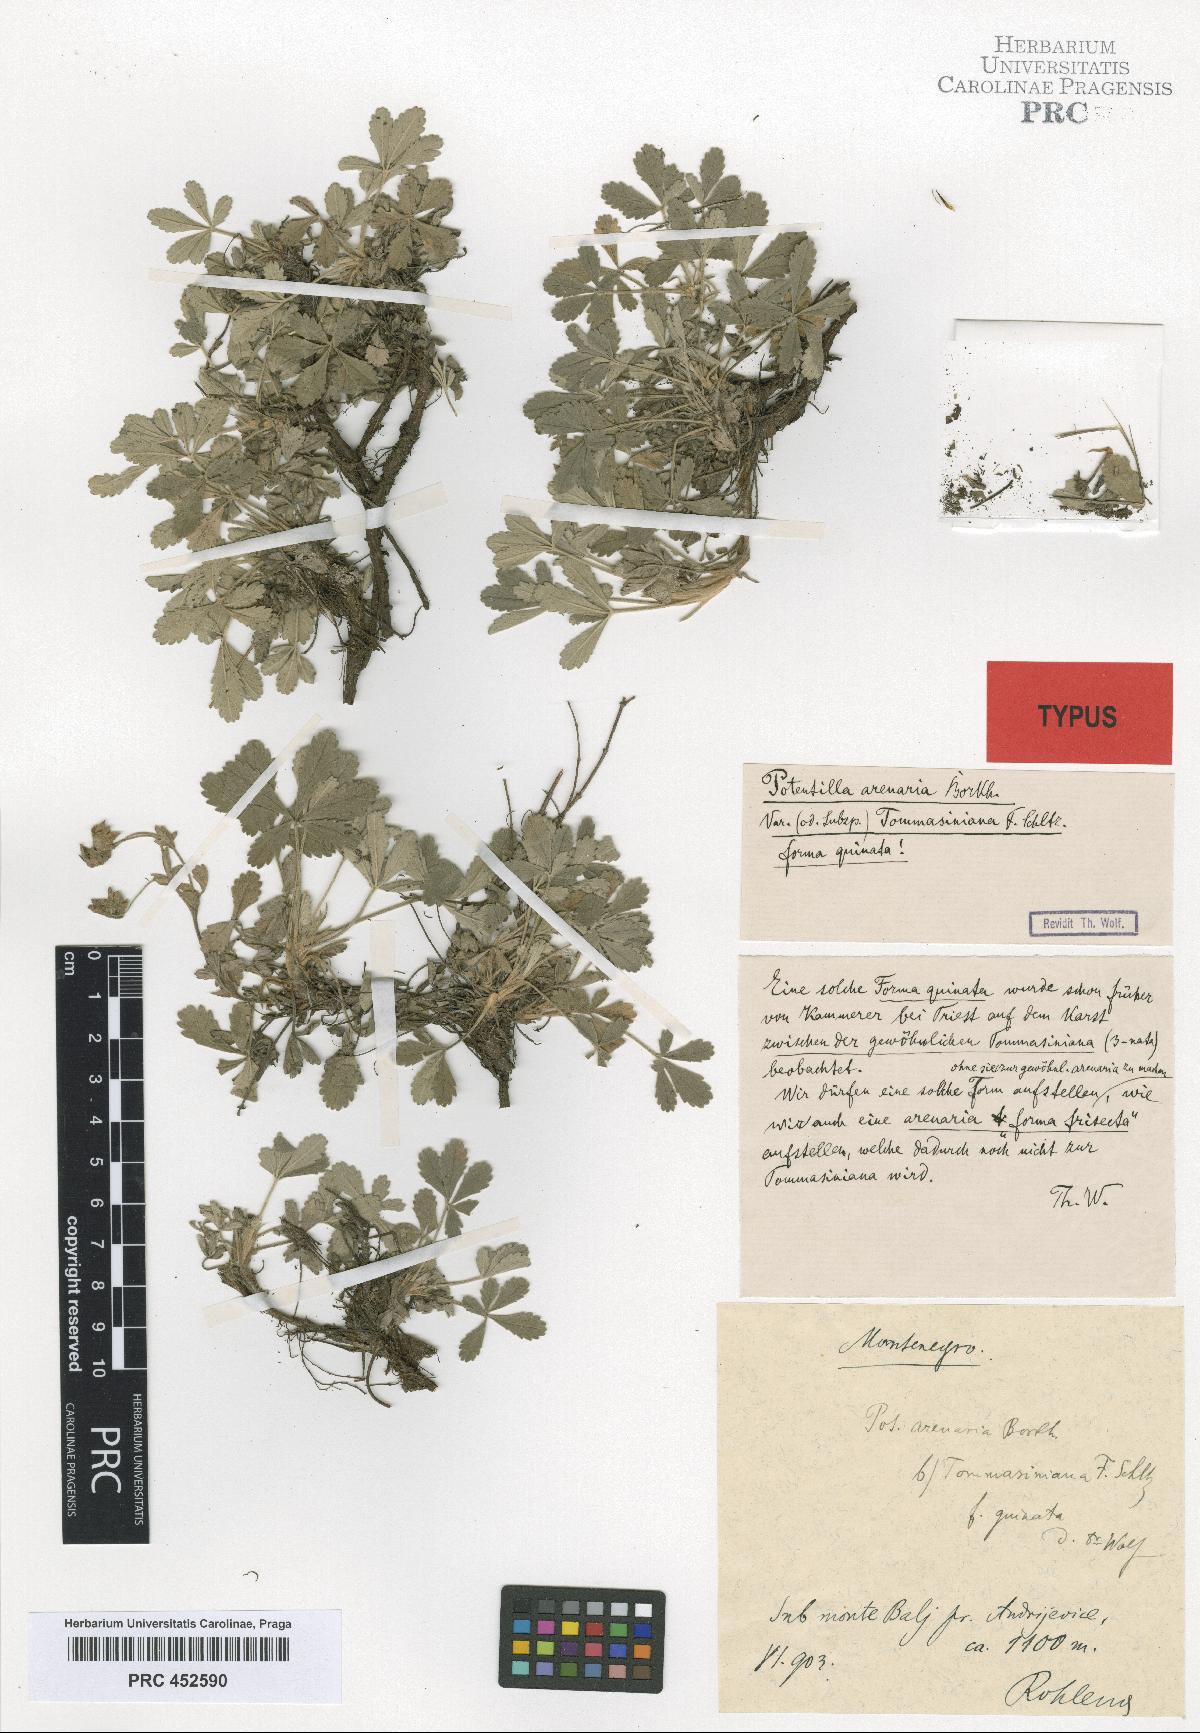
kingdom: Plantae
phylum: Tracheophyta
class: Magnoliopsida
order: Rosales
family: Rosaceae
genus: Potentilla
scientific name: Potentilla cinerea
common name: Ashy cinquefoil
